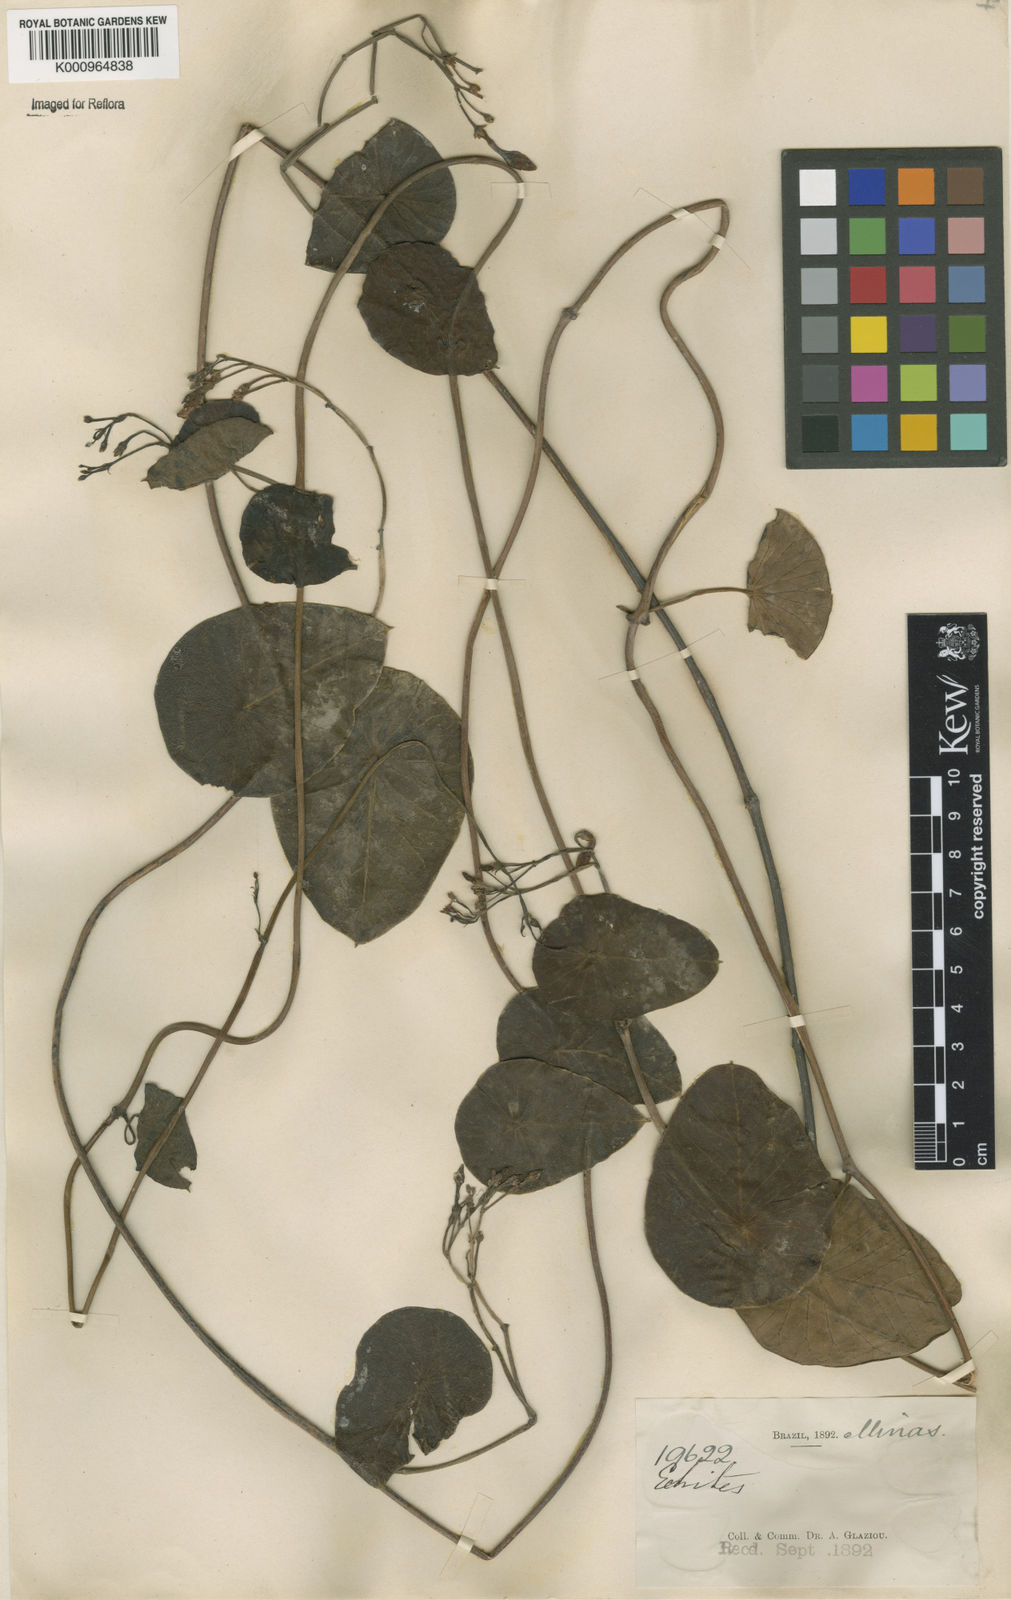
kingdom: Plantae
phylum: Tracheophyta
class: Magnoliopsida
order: Gentianales
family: Apocynaceae
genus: Stipecoma
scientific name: Stipecoma
